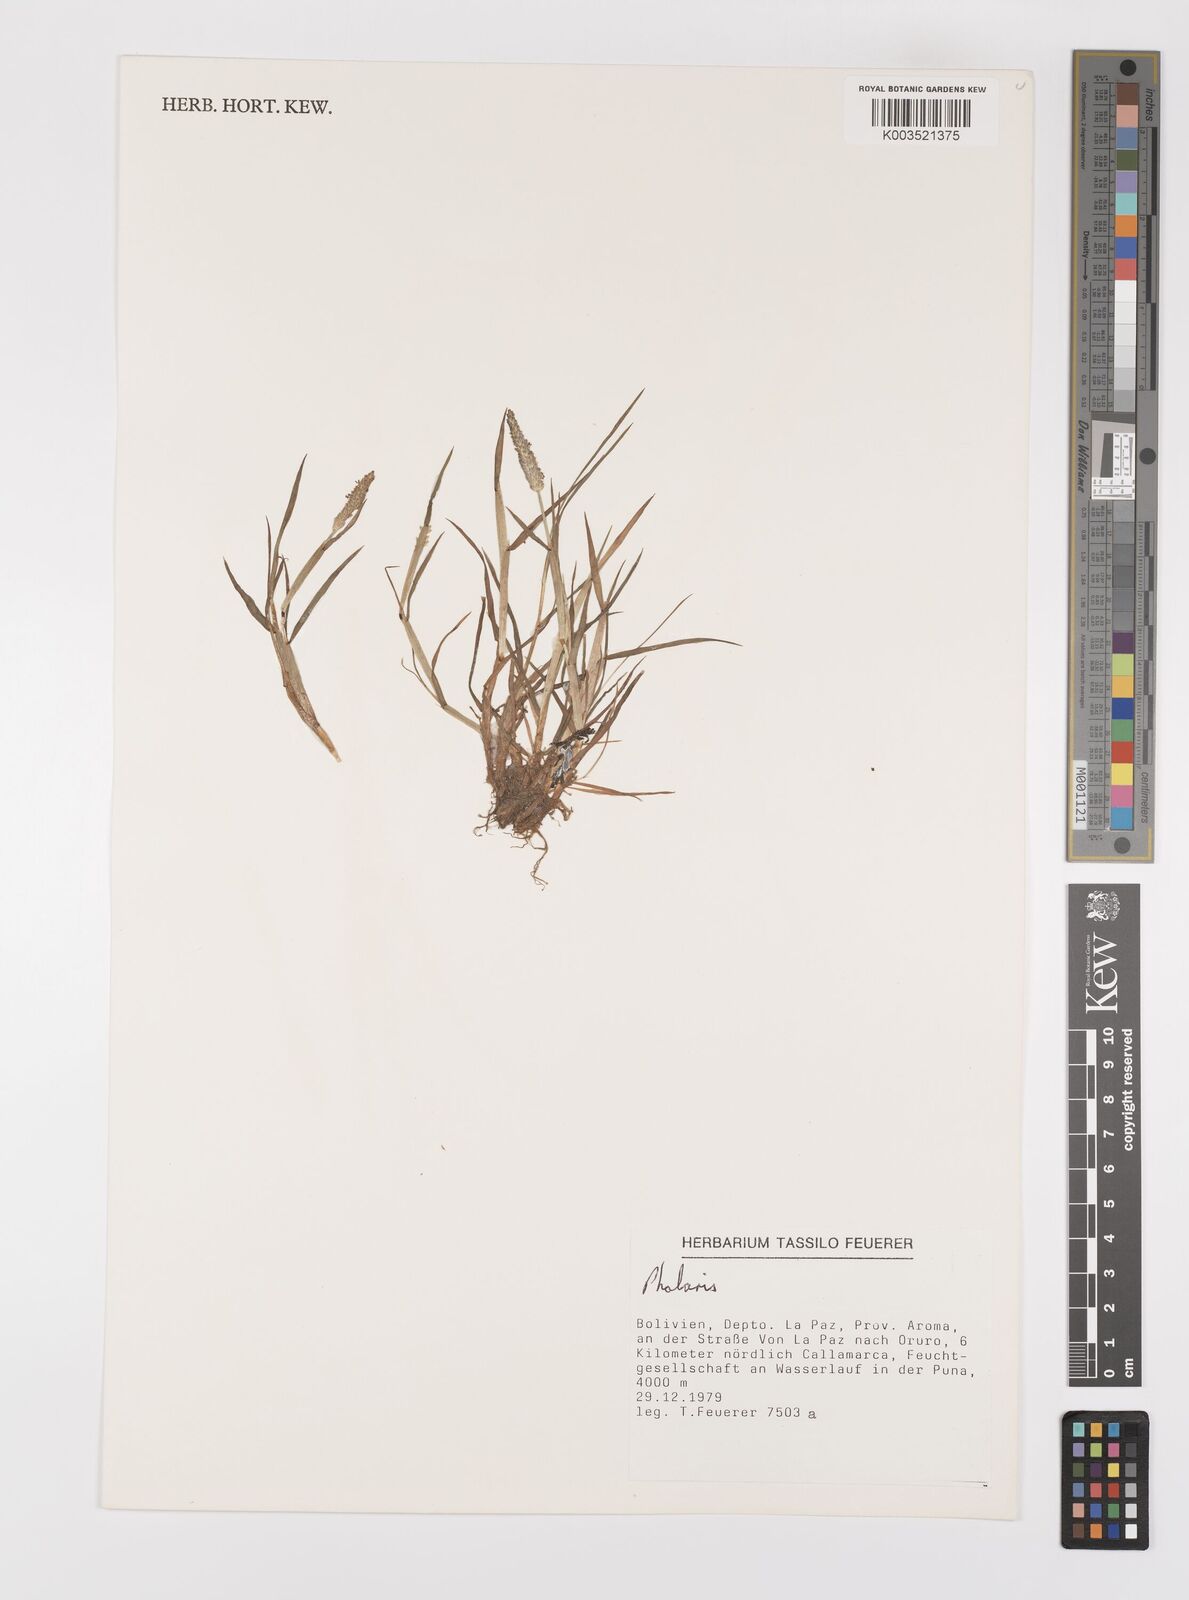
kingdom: Plantae
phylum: Tracheophyta
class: Liliopsida
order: Poales
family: Poaceae
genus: Alopecurus
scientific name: Alopecurus hitchcockii
